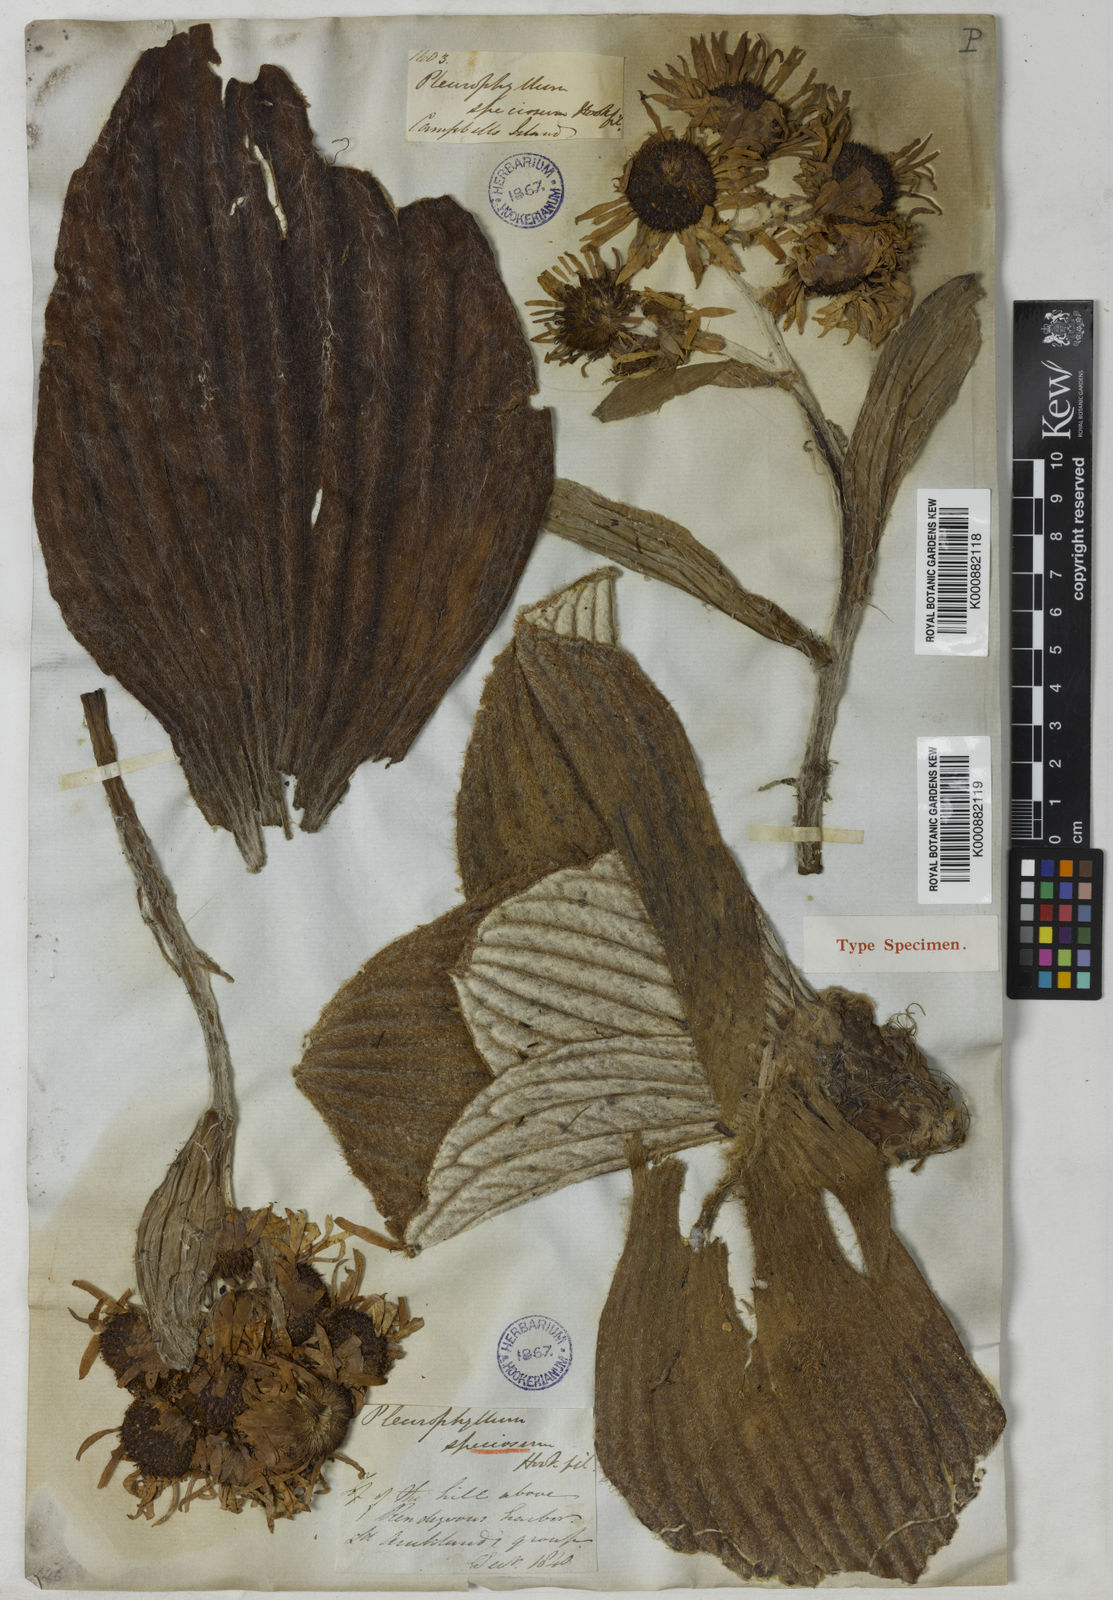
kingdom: Plantae
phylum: Tracheophyta
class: Magnoliopsida
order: Asterales
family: Asteraceae
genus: Pleurophyllum
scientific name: Pleurophyllum speciosum
